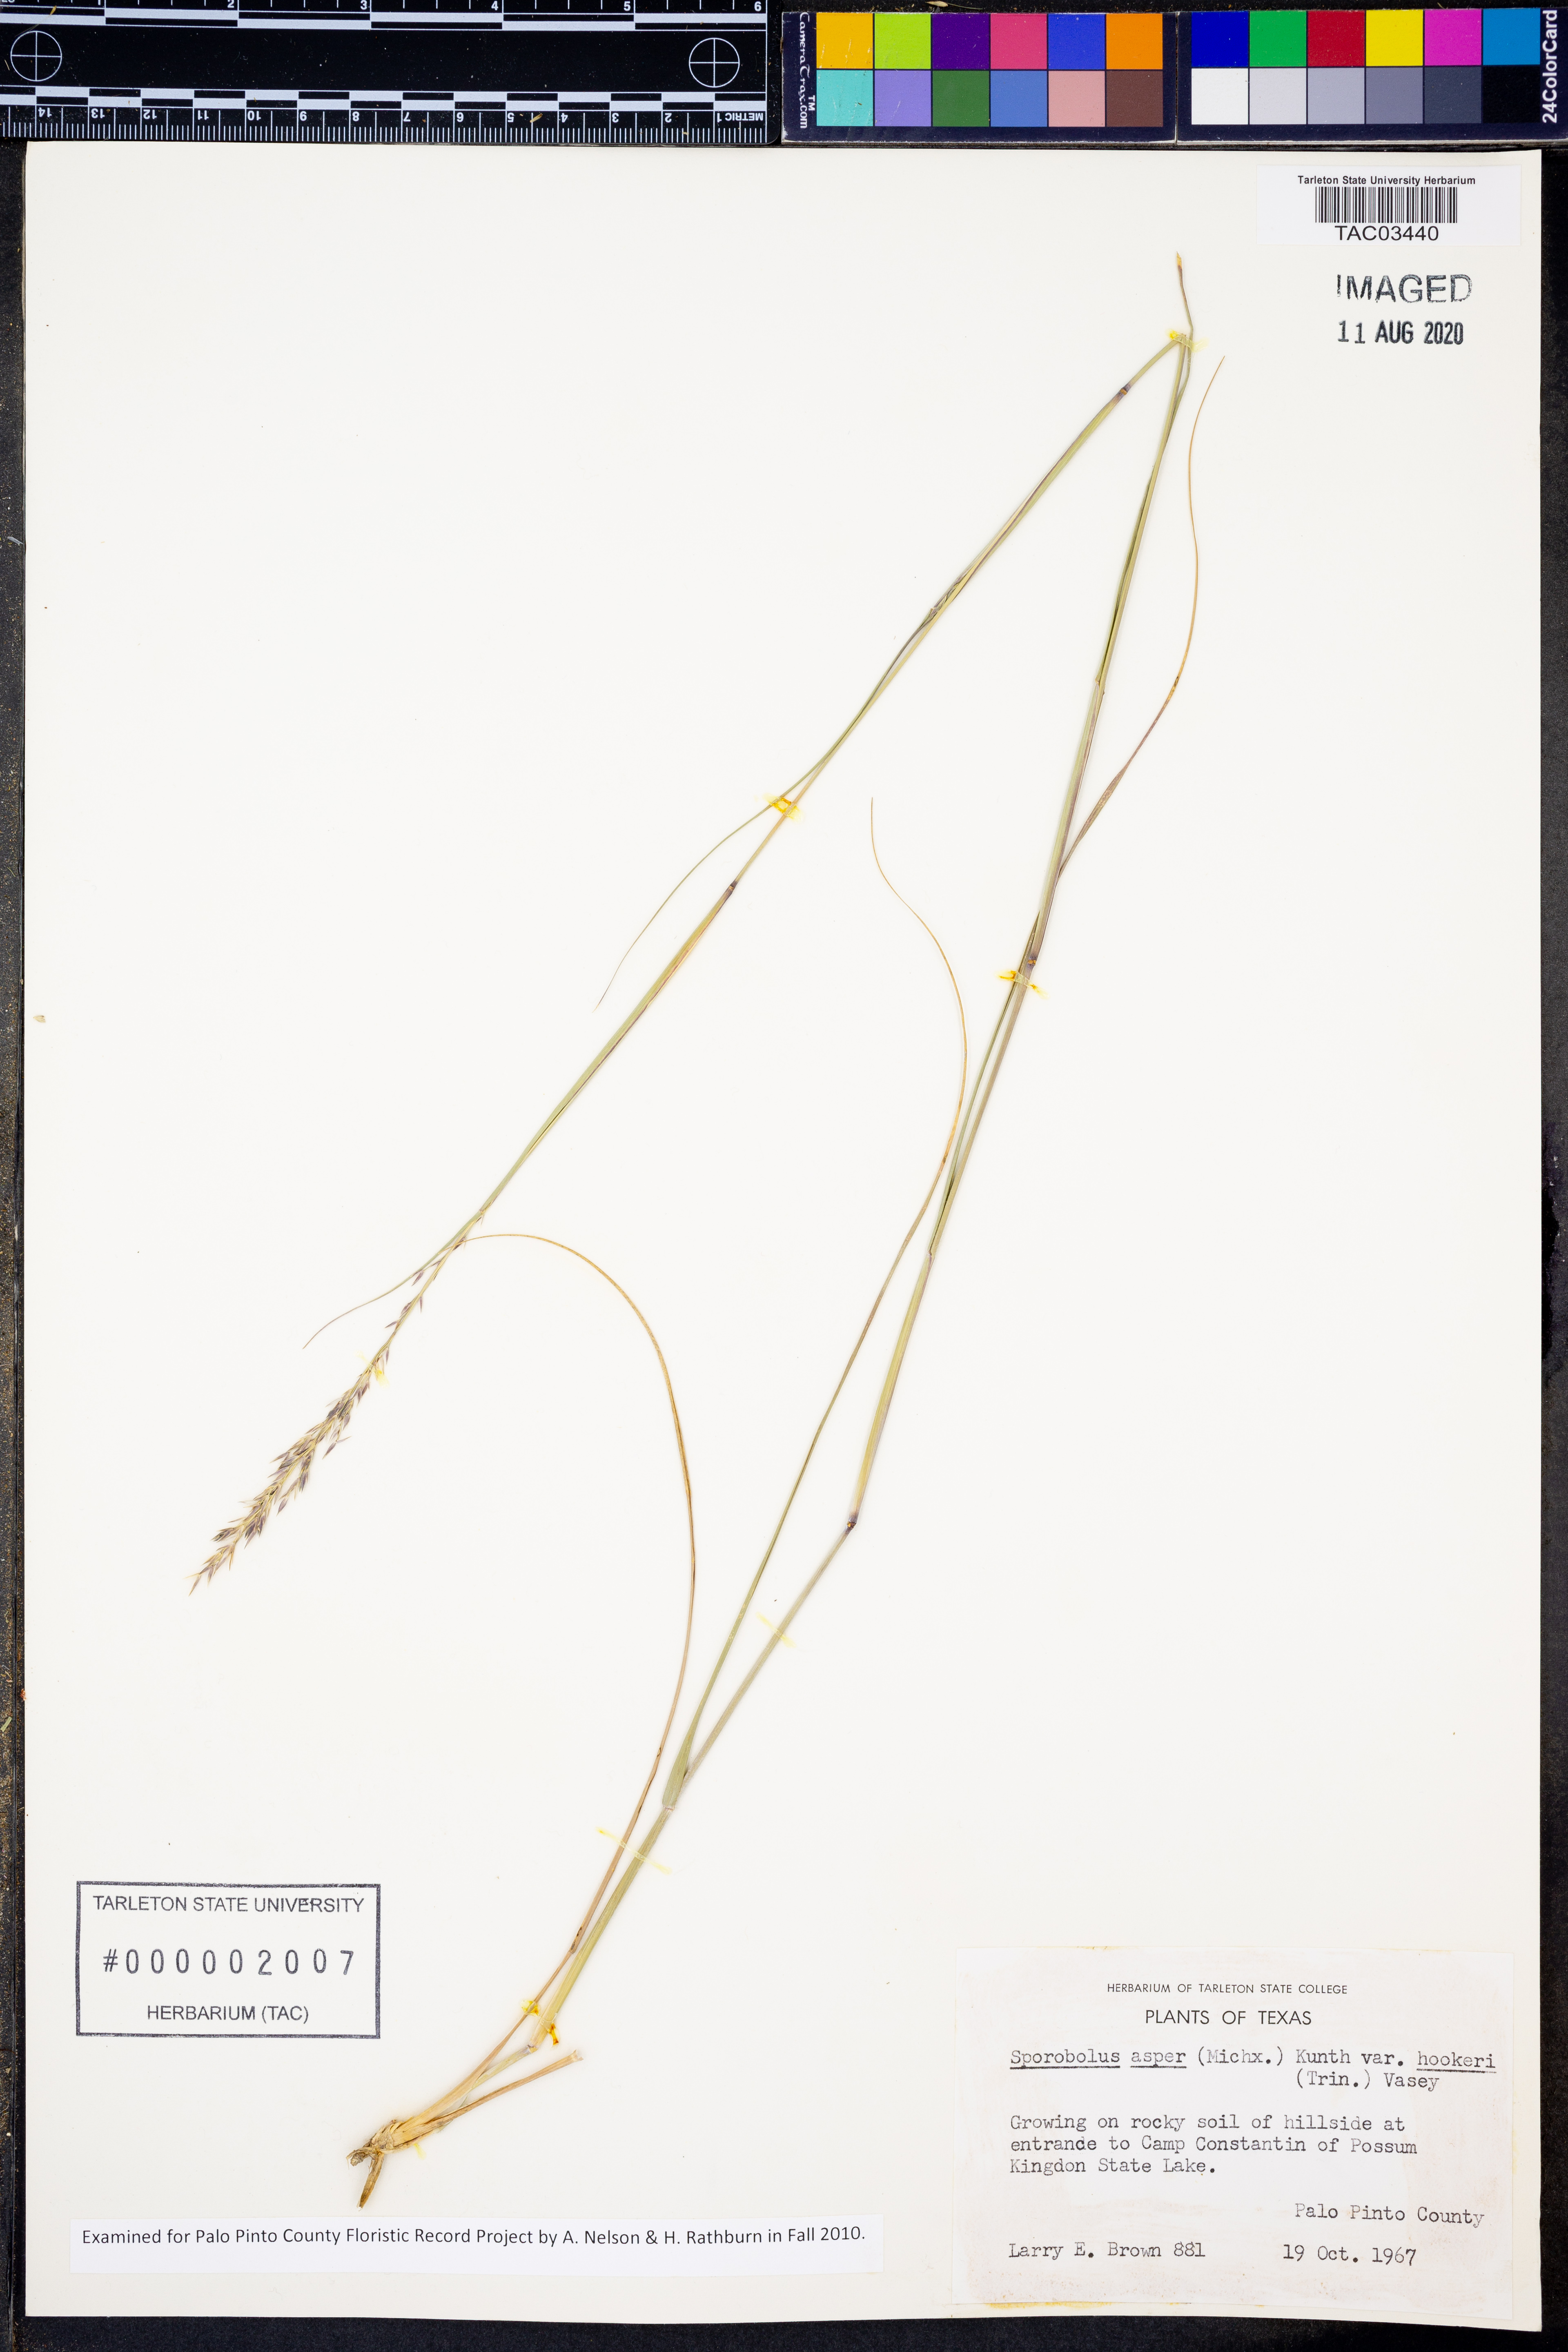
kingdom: Plantae
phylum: Tracheophyta
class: Liliopsida
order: Poales
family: Poaceae
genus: Sporobolus
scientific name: Sporobolus compositus
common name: Rough dropseed
